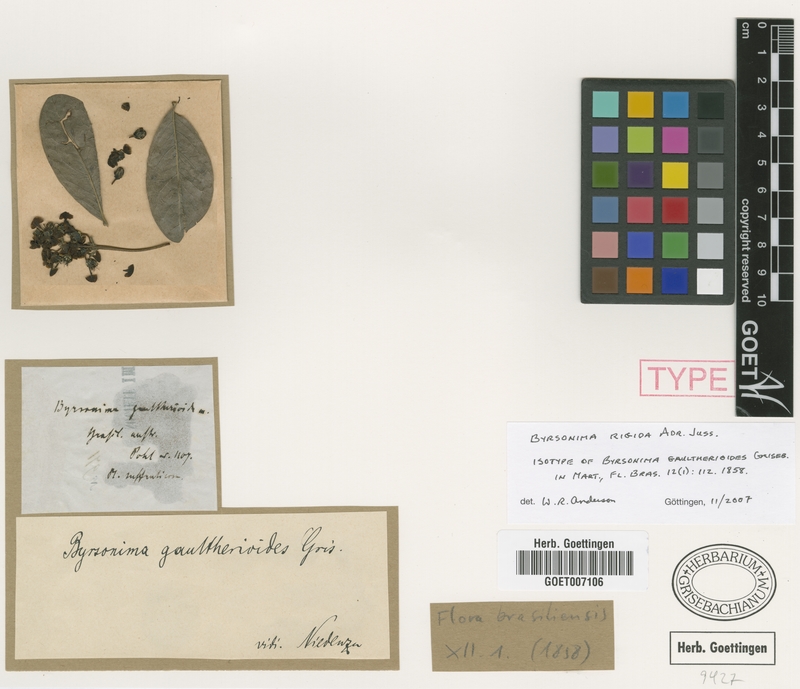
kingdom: Plantae
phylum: Tracheophyta
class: Magnoliopsida
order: Malpighiales
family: Malpighiaceae
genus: Byrsonima
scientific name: Byrsonima rigida
